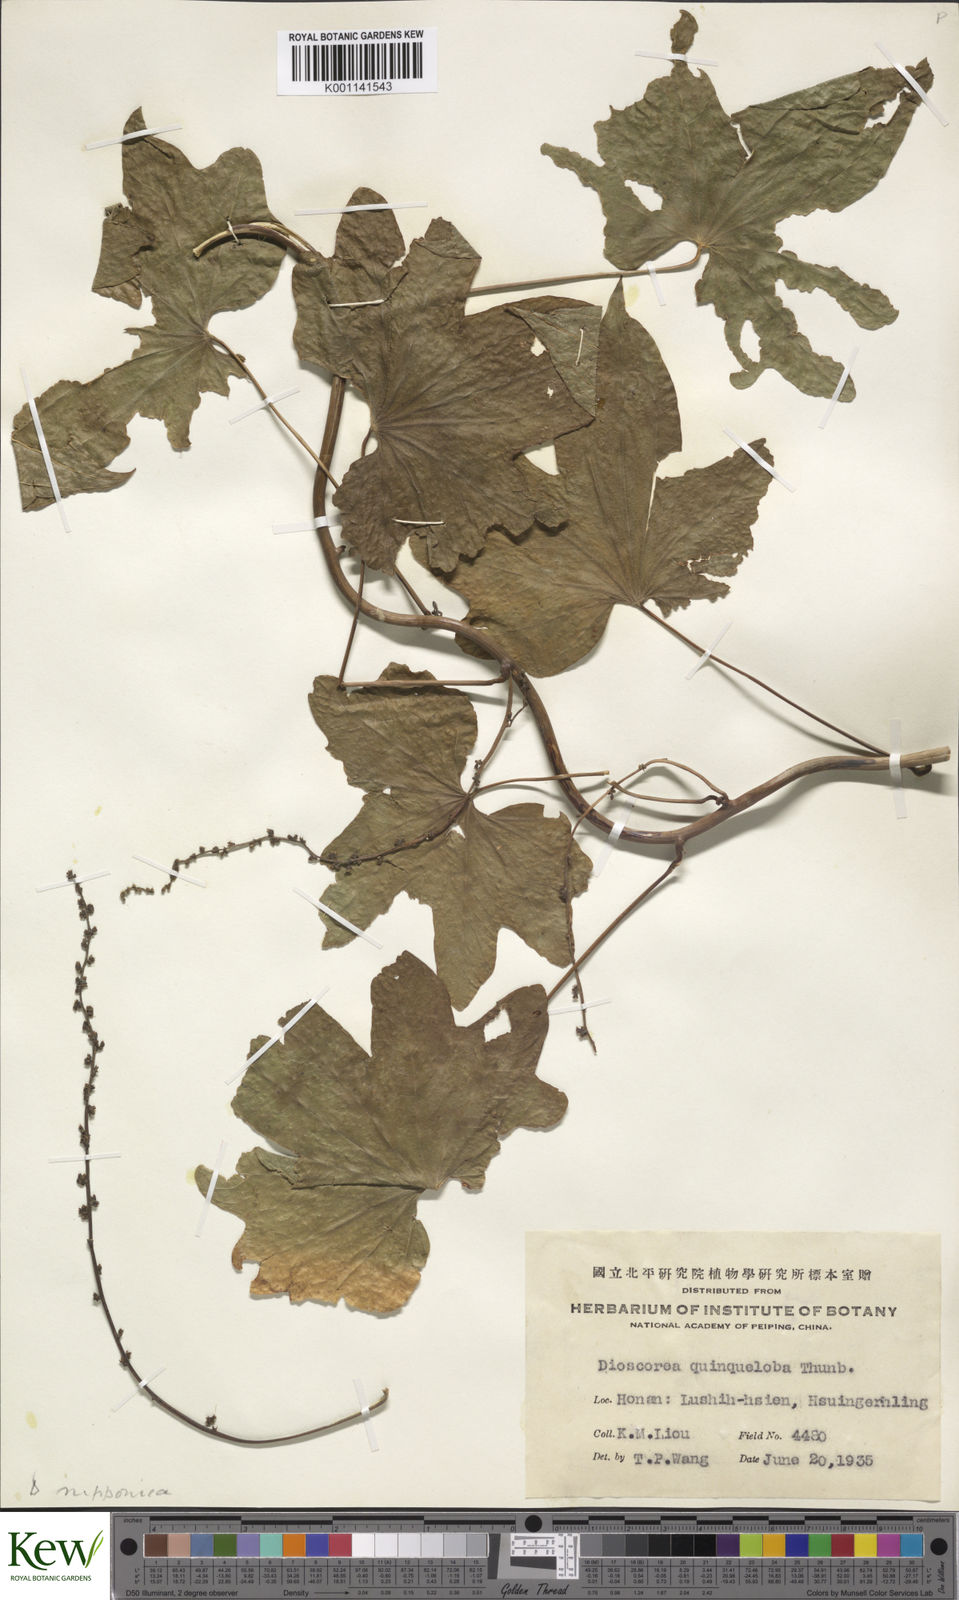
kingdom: Plantae
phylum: Tracheophyta
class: Liliopsida
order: Dioscoreales
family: Dioscoreaceae
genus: Dioscorea
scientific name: Dioscorea nipponica
